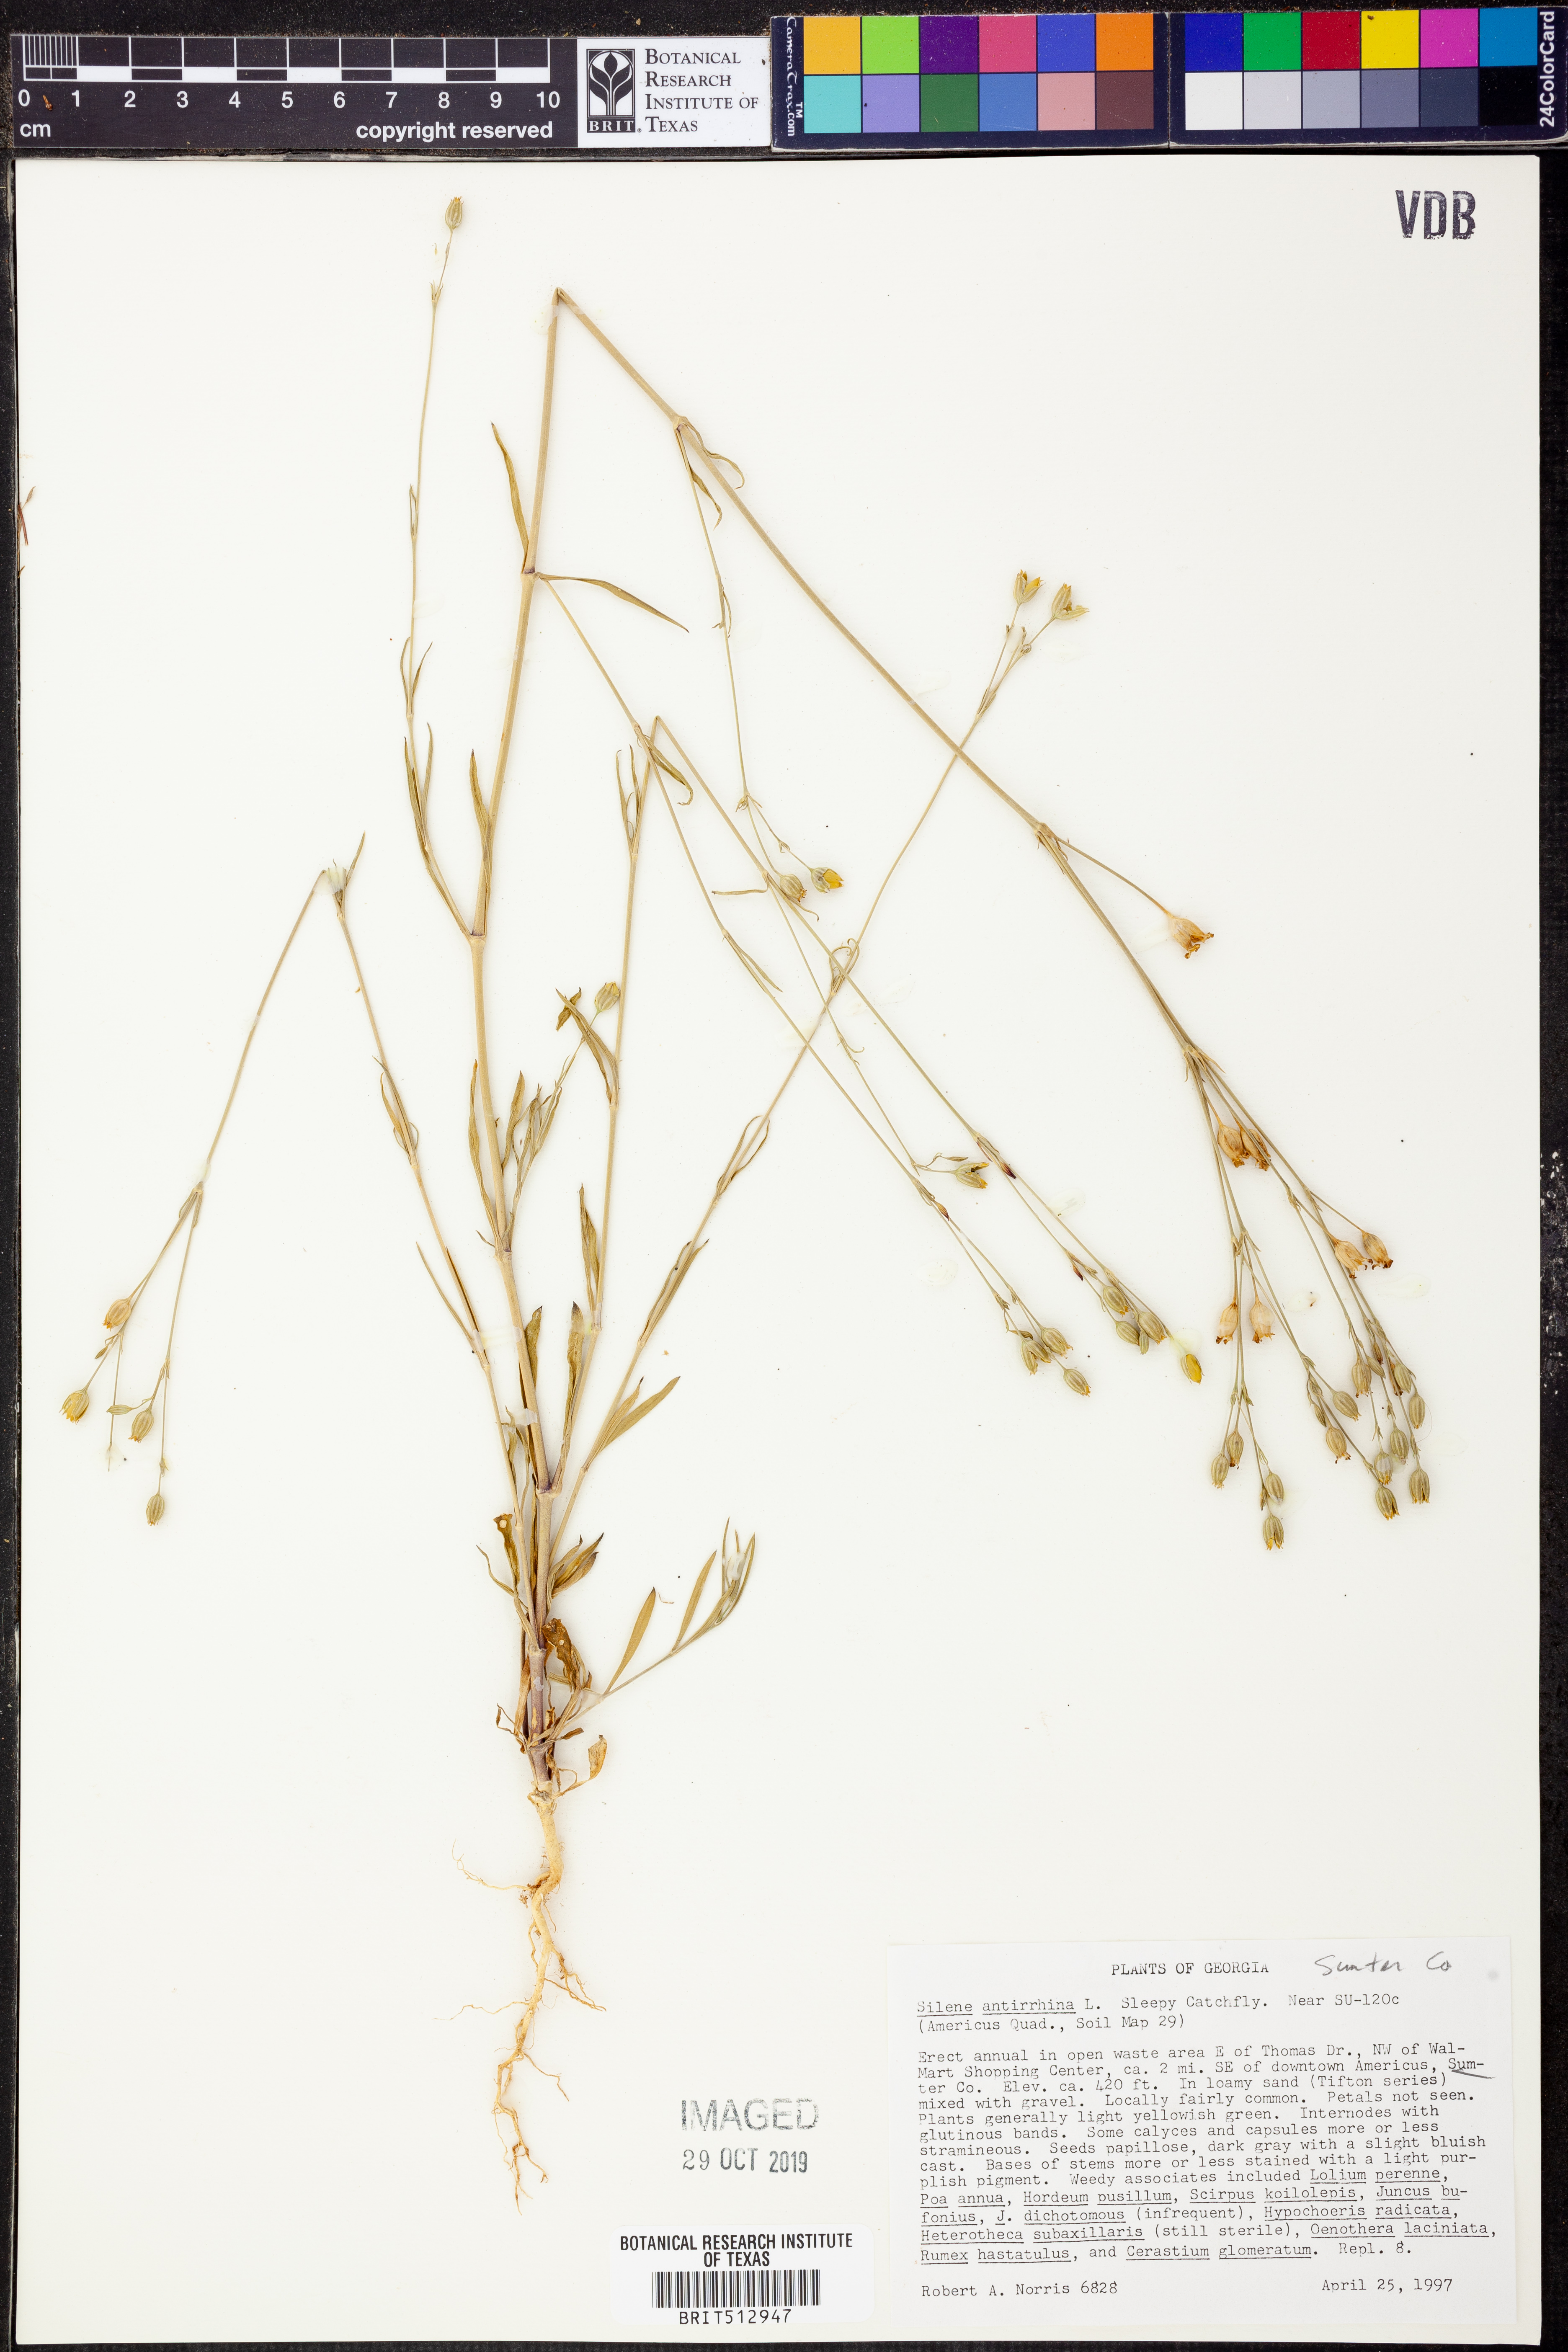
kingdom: Plantae
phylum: Tracheophyta
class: Magnoliopsida
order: Caryophyllales
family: Caryophyllaceae
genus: Silene
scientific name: Silene antirrhina
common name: Sleepy catchfly
